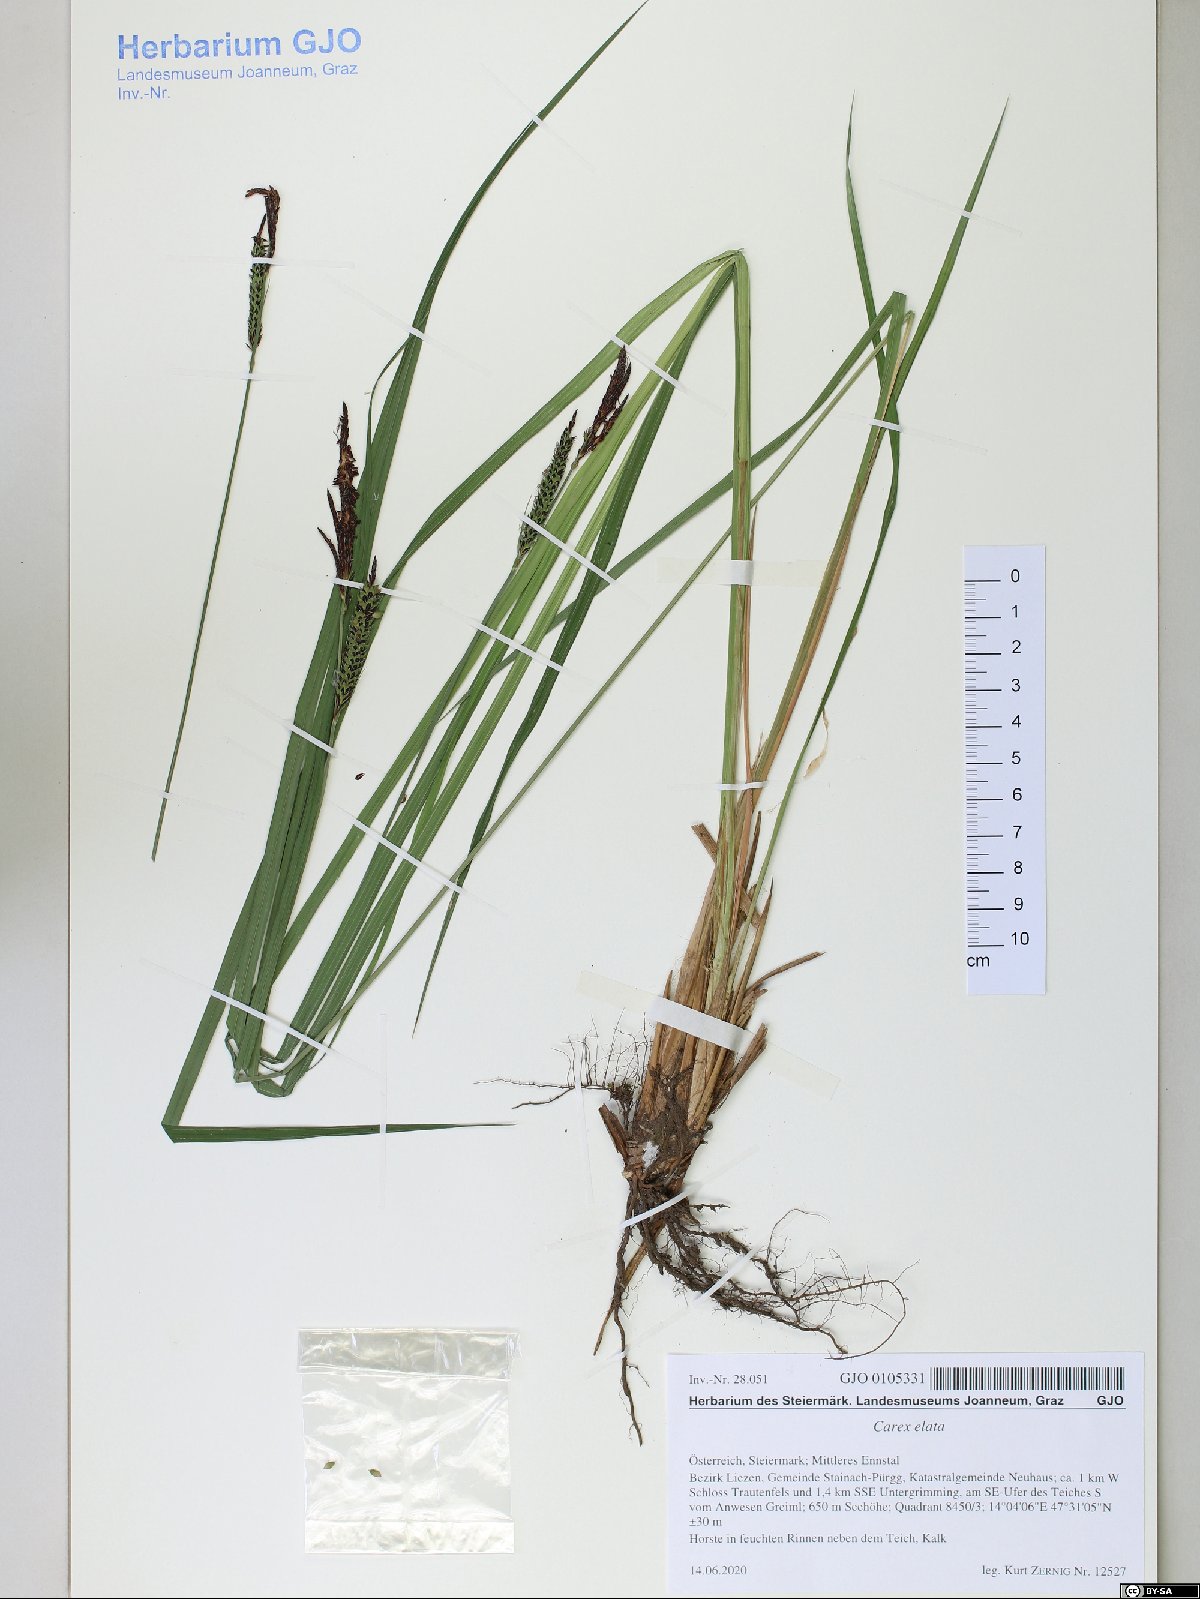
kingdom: Plantae
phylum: Tracheophyta
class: Liliopsida
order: Poales
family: Cyperaceae
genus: Carex
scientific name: Carex elata
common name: Tufted sedge
